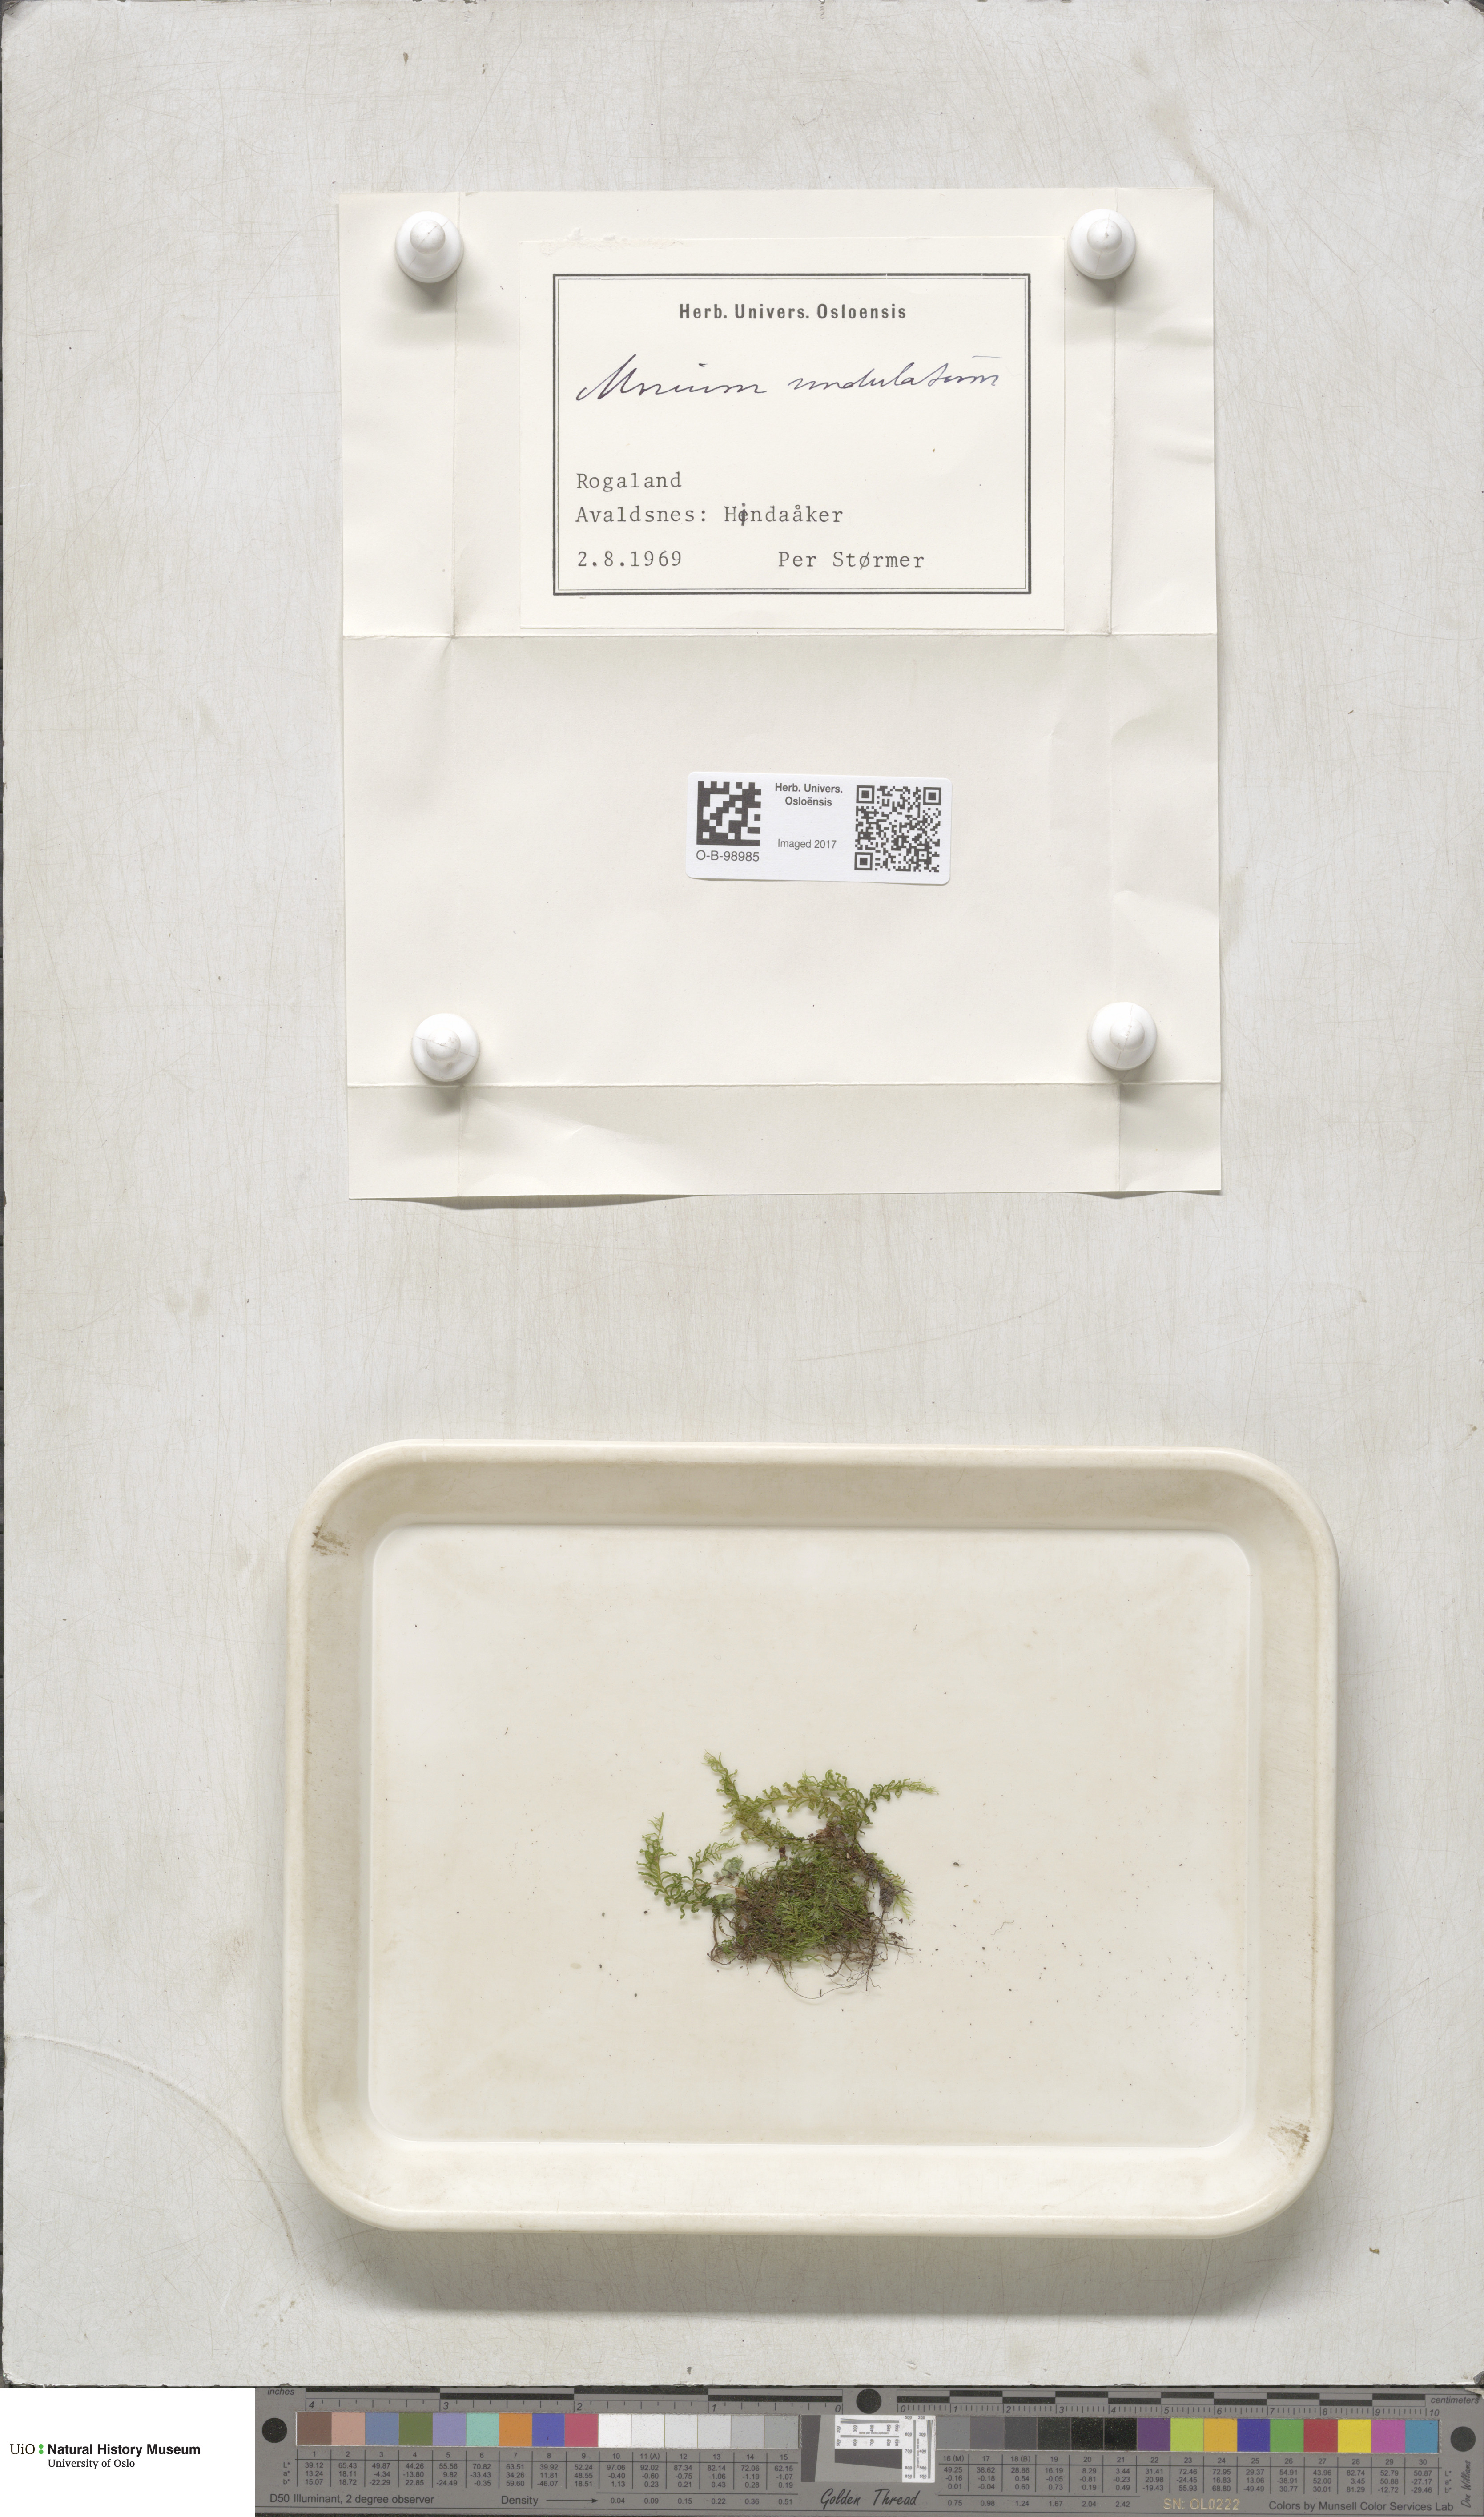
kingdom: Plantae
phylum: Bryophyta
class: Bryopsida
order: Bryales
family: Mniaceae
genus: Plagiomnium
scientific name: Plagiomnium undulatum
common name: Hart's-tongue thyme-moss
